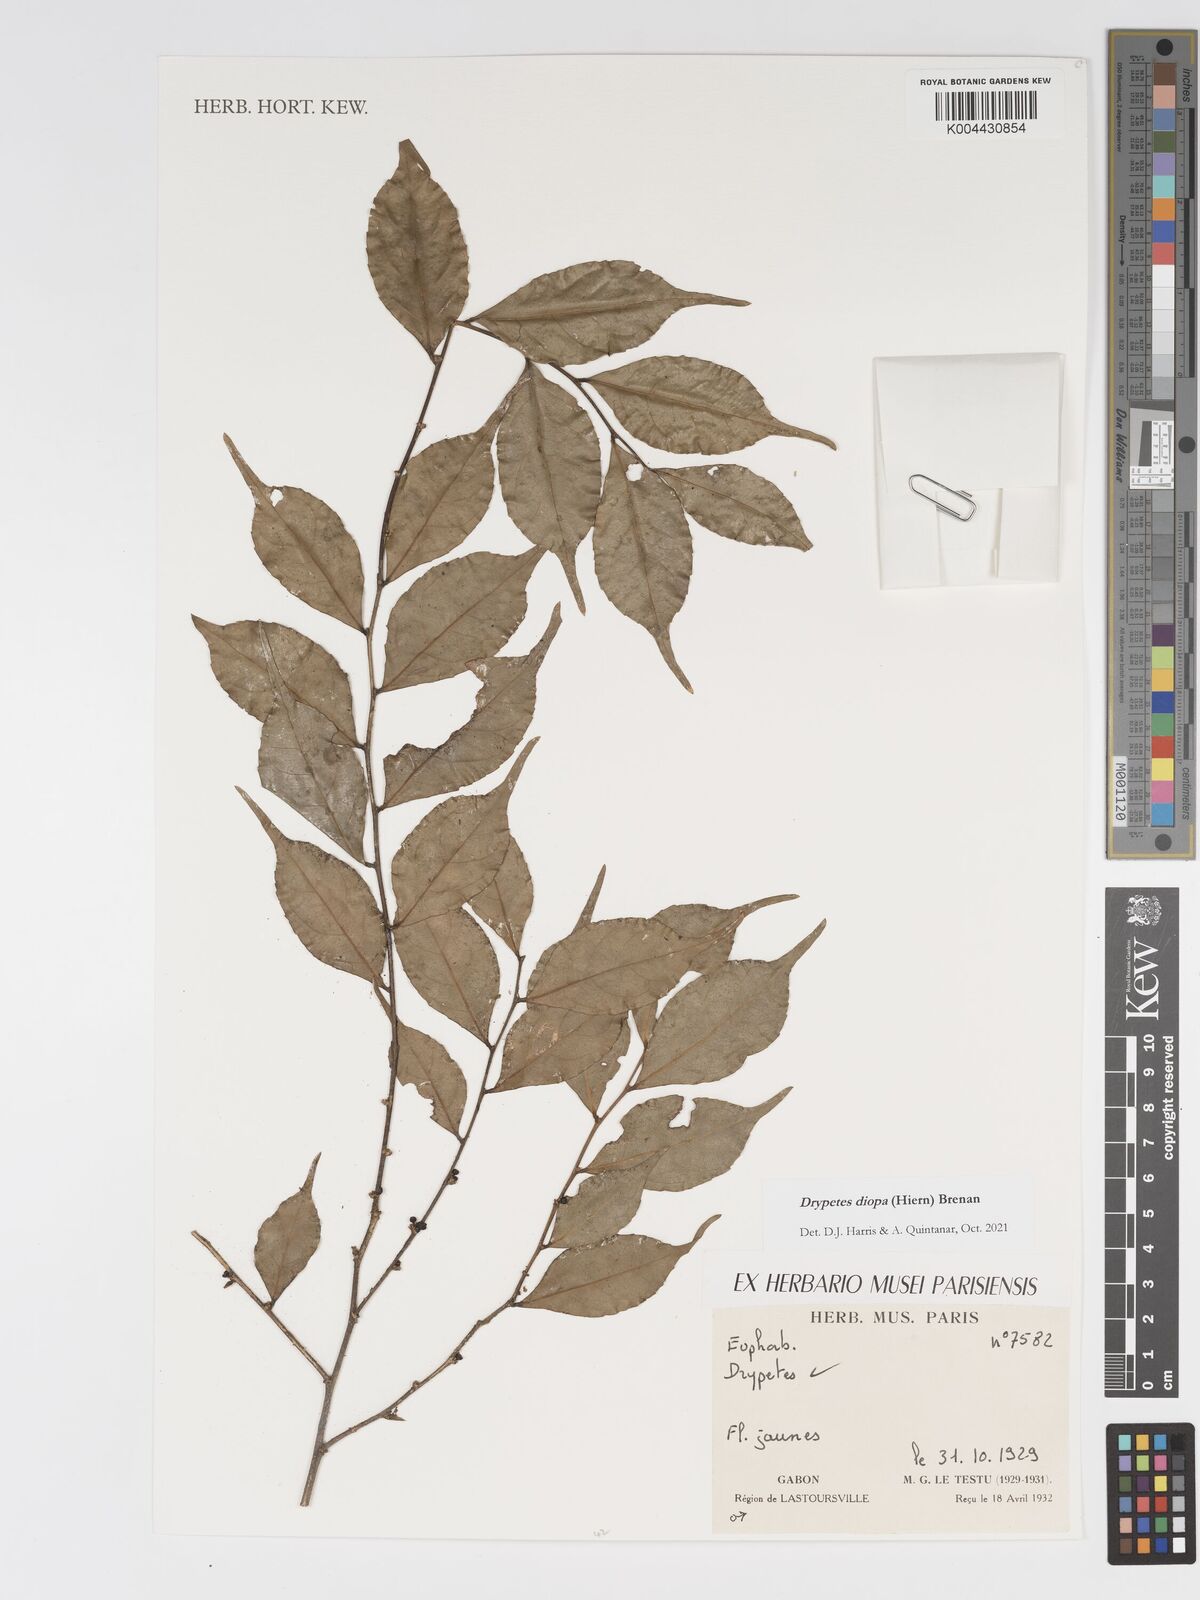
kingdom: Plantae
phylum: Tracheophyta
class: Magnoliopsida
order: Malpighiales
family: Putranjivaceae
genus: Drypetes
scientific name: Drypetes diopa
